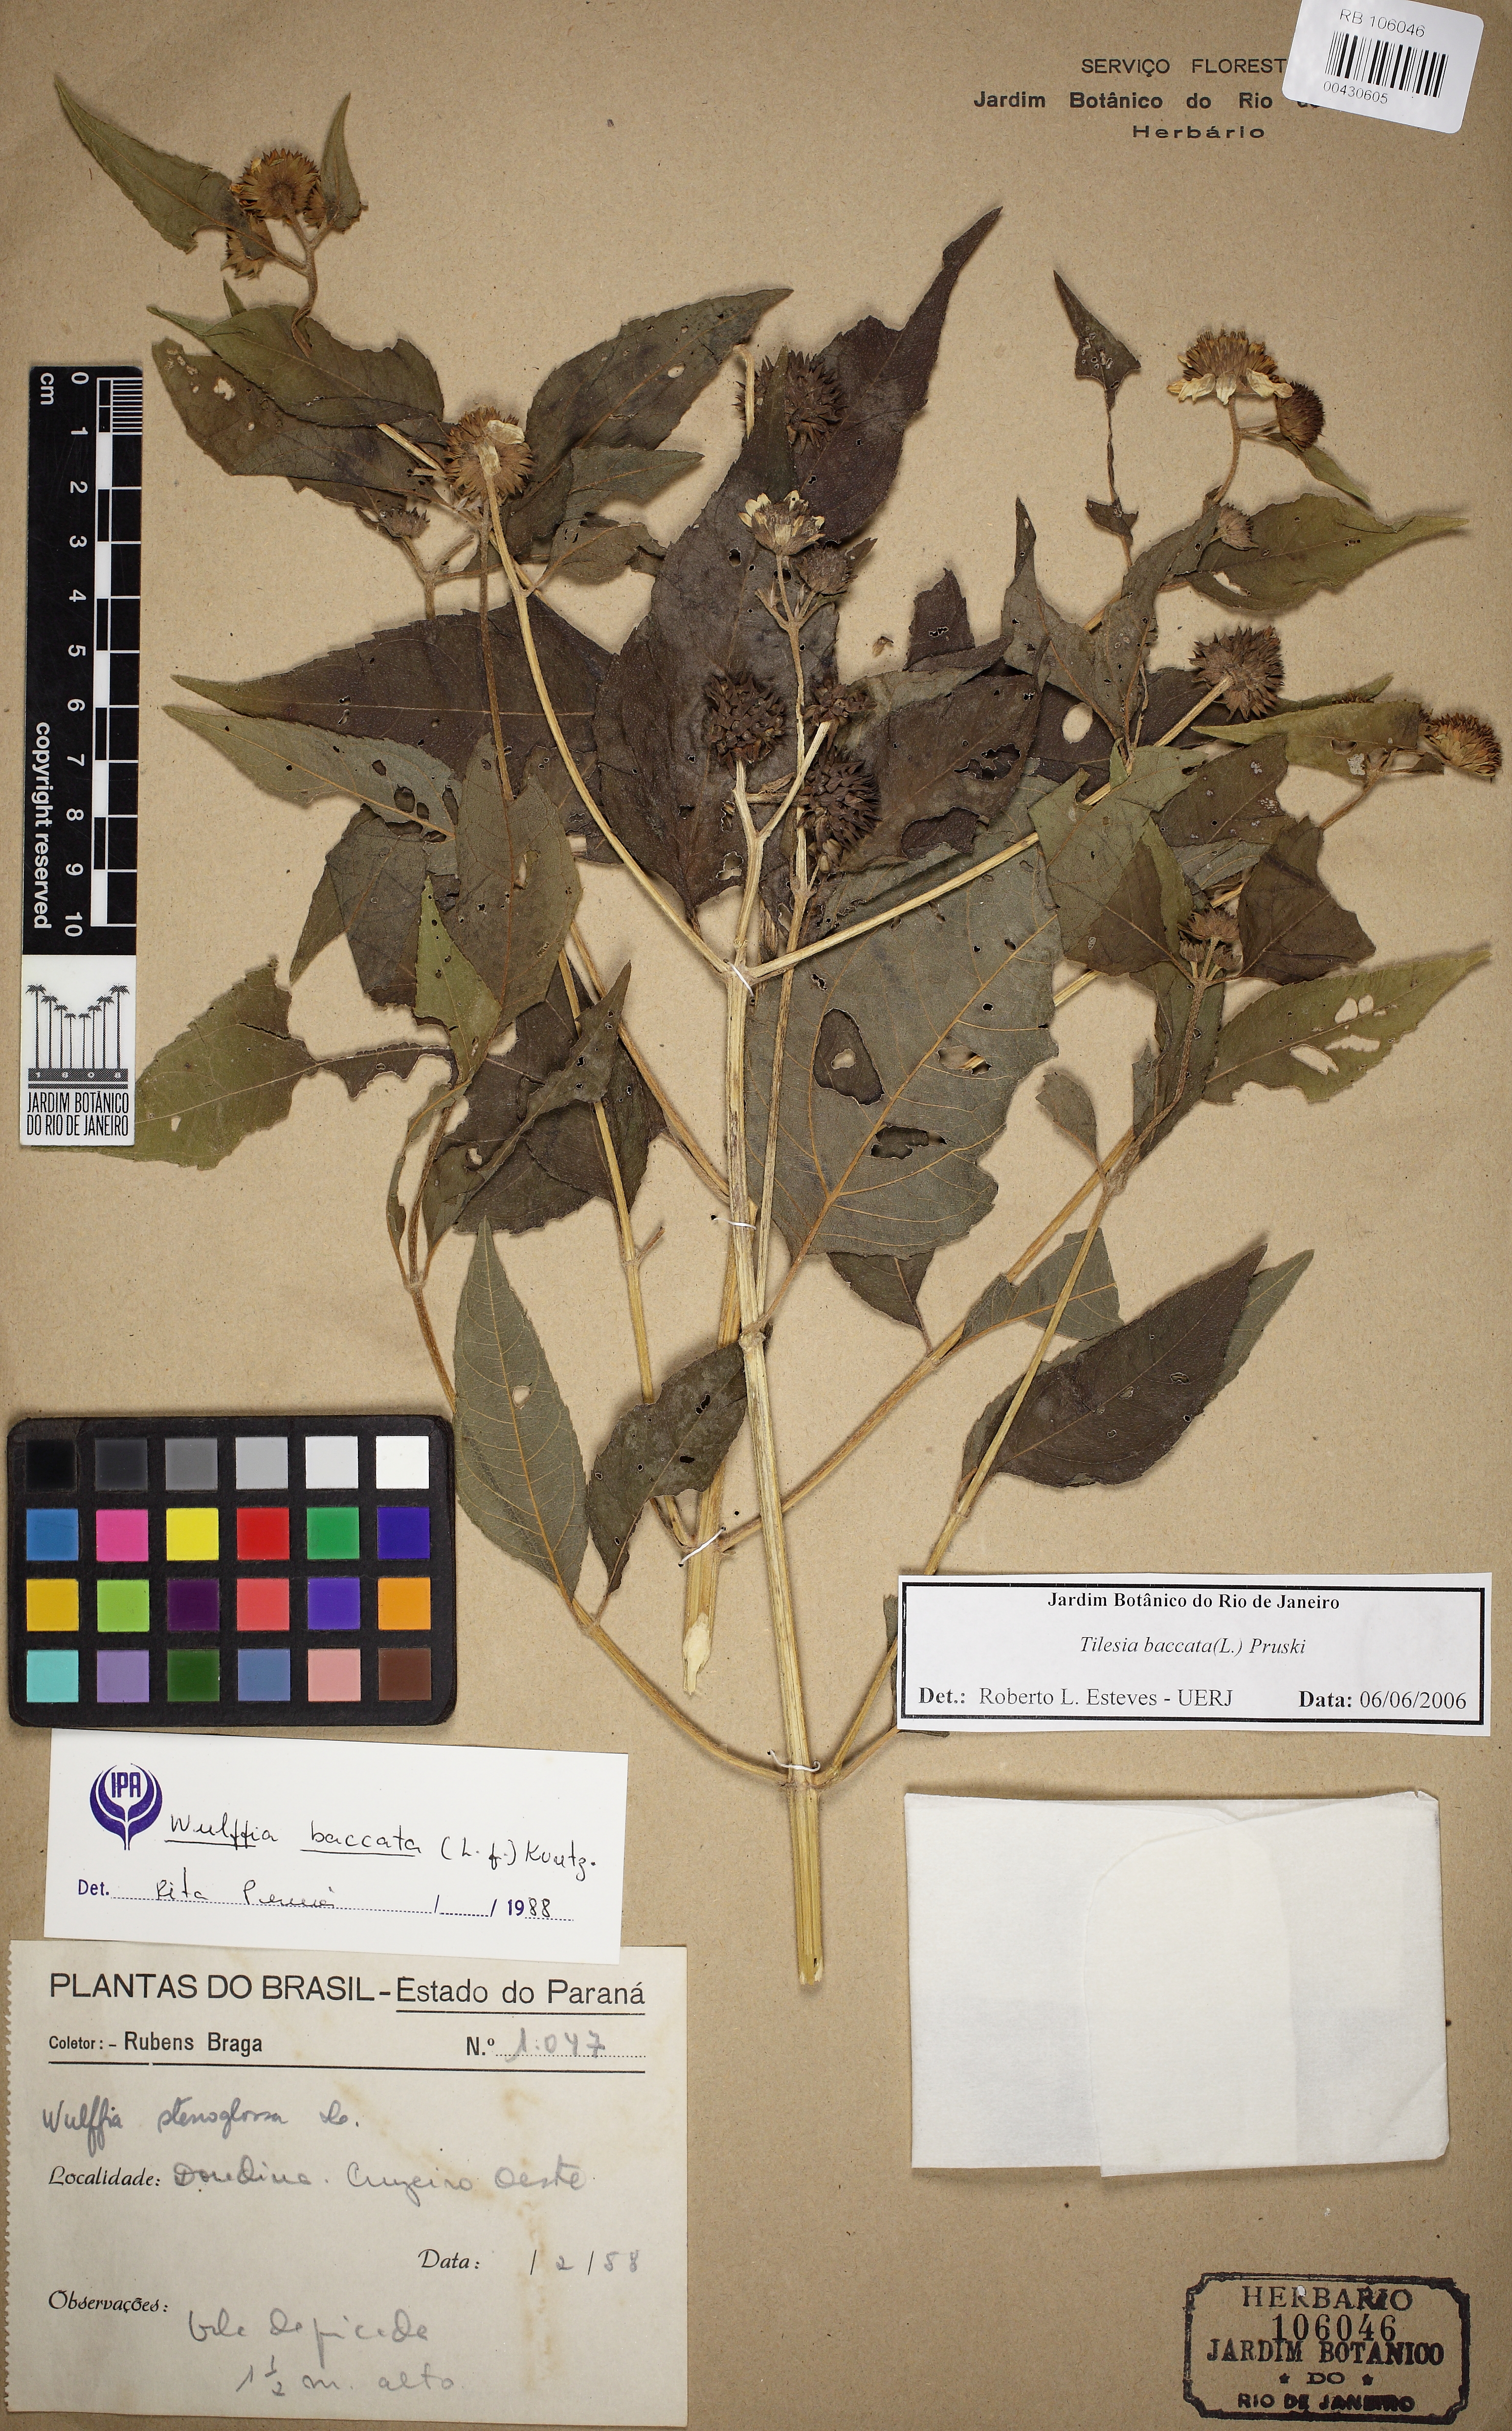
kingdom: Plantae
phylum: Tracheophyta
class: Magnoliopsida
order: Asterales
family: Asteraceae
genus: Tilesia
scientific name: Tilesia baccata
